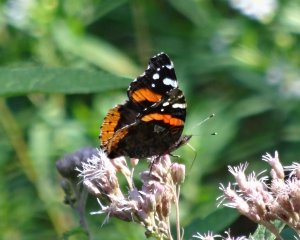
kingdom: Animalia
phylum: Arthropoda
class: Insecta
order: Lepidoptera
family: Nymphalidae
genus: Vanessa
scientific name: Vanessa atalanta
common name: Red Admiral
